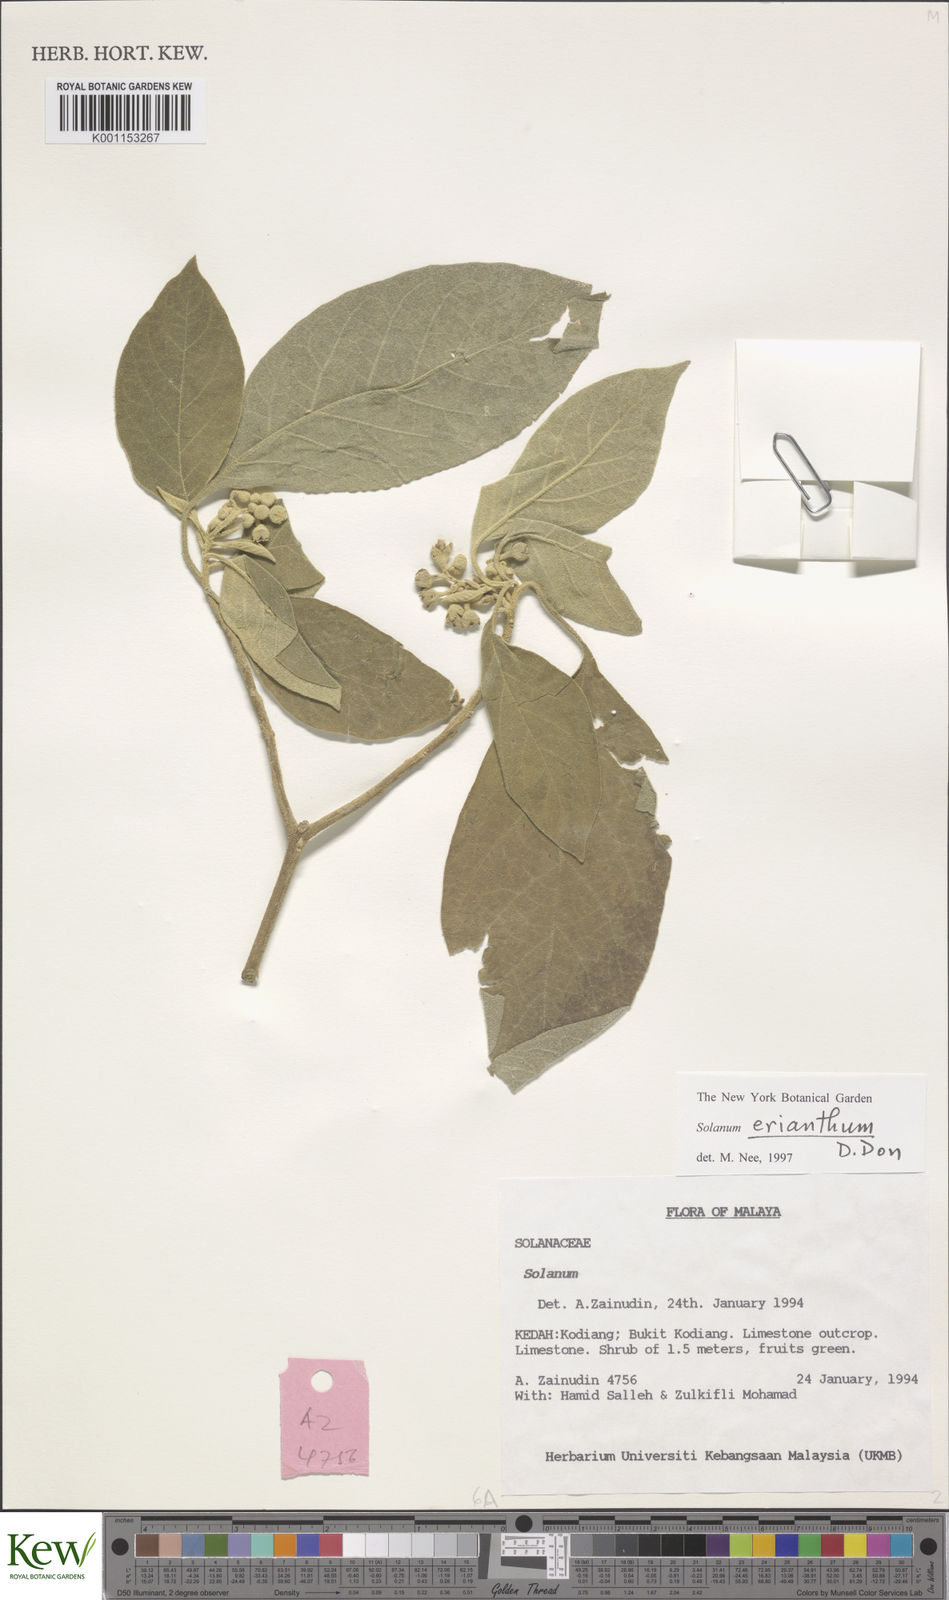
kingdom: Plantae
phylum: Tracheophyta
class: Magnoliopsida
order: Solanales
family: Solanaceae
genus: Solanum
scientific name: Solanum erianthum
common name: Tobacco-tree
